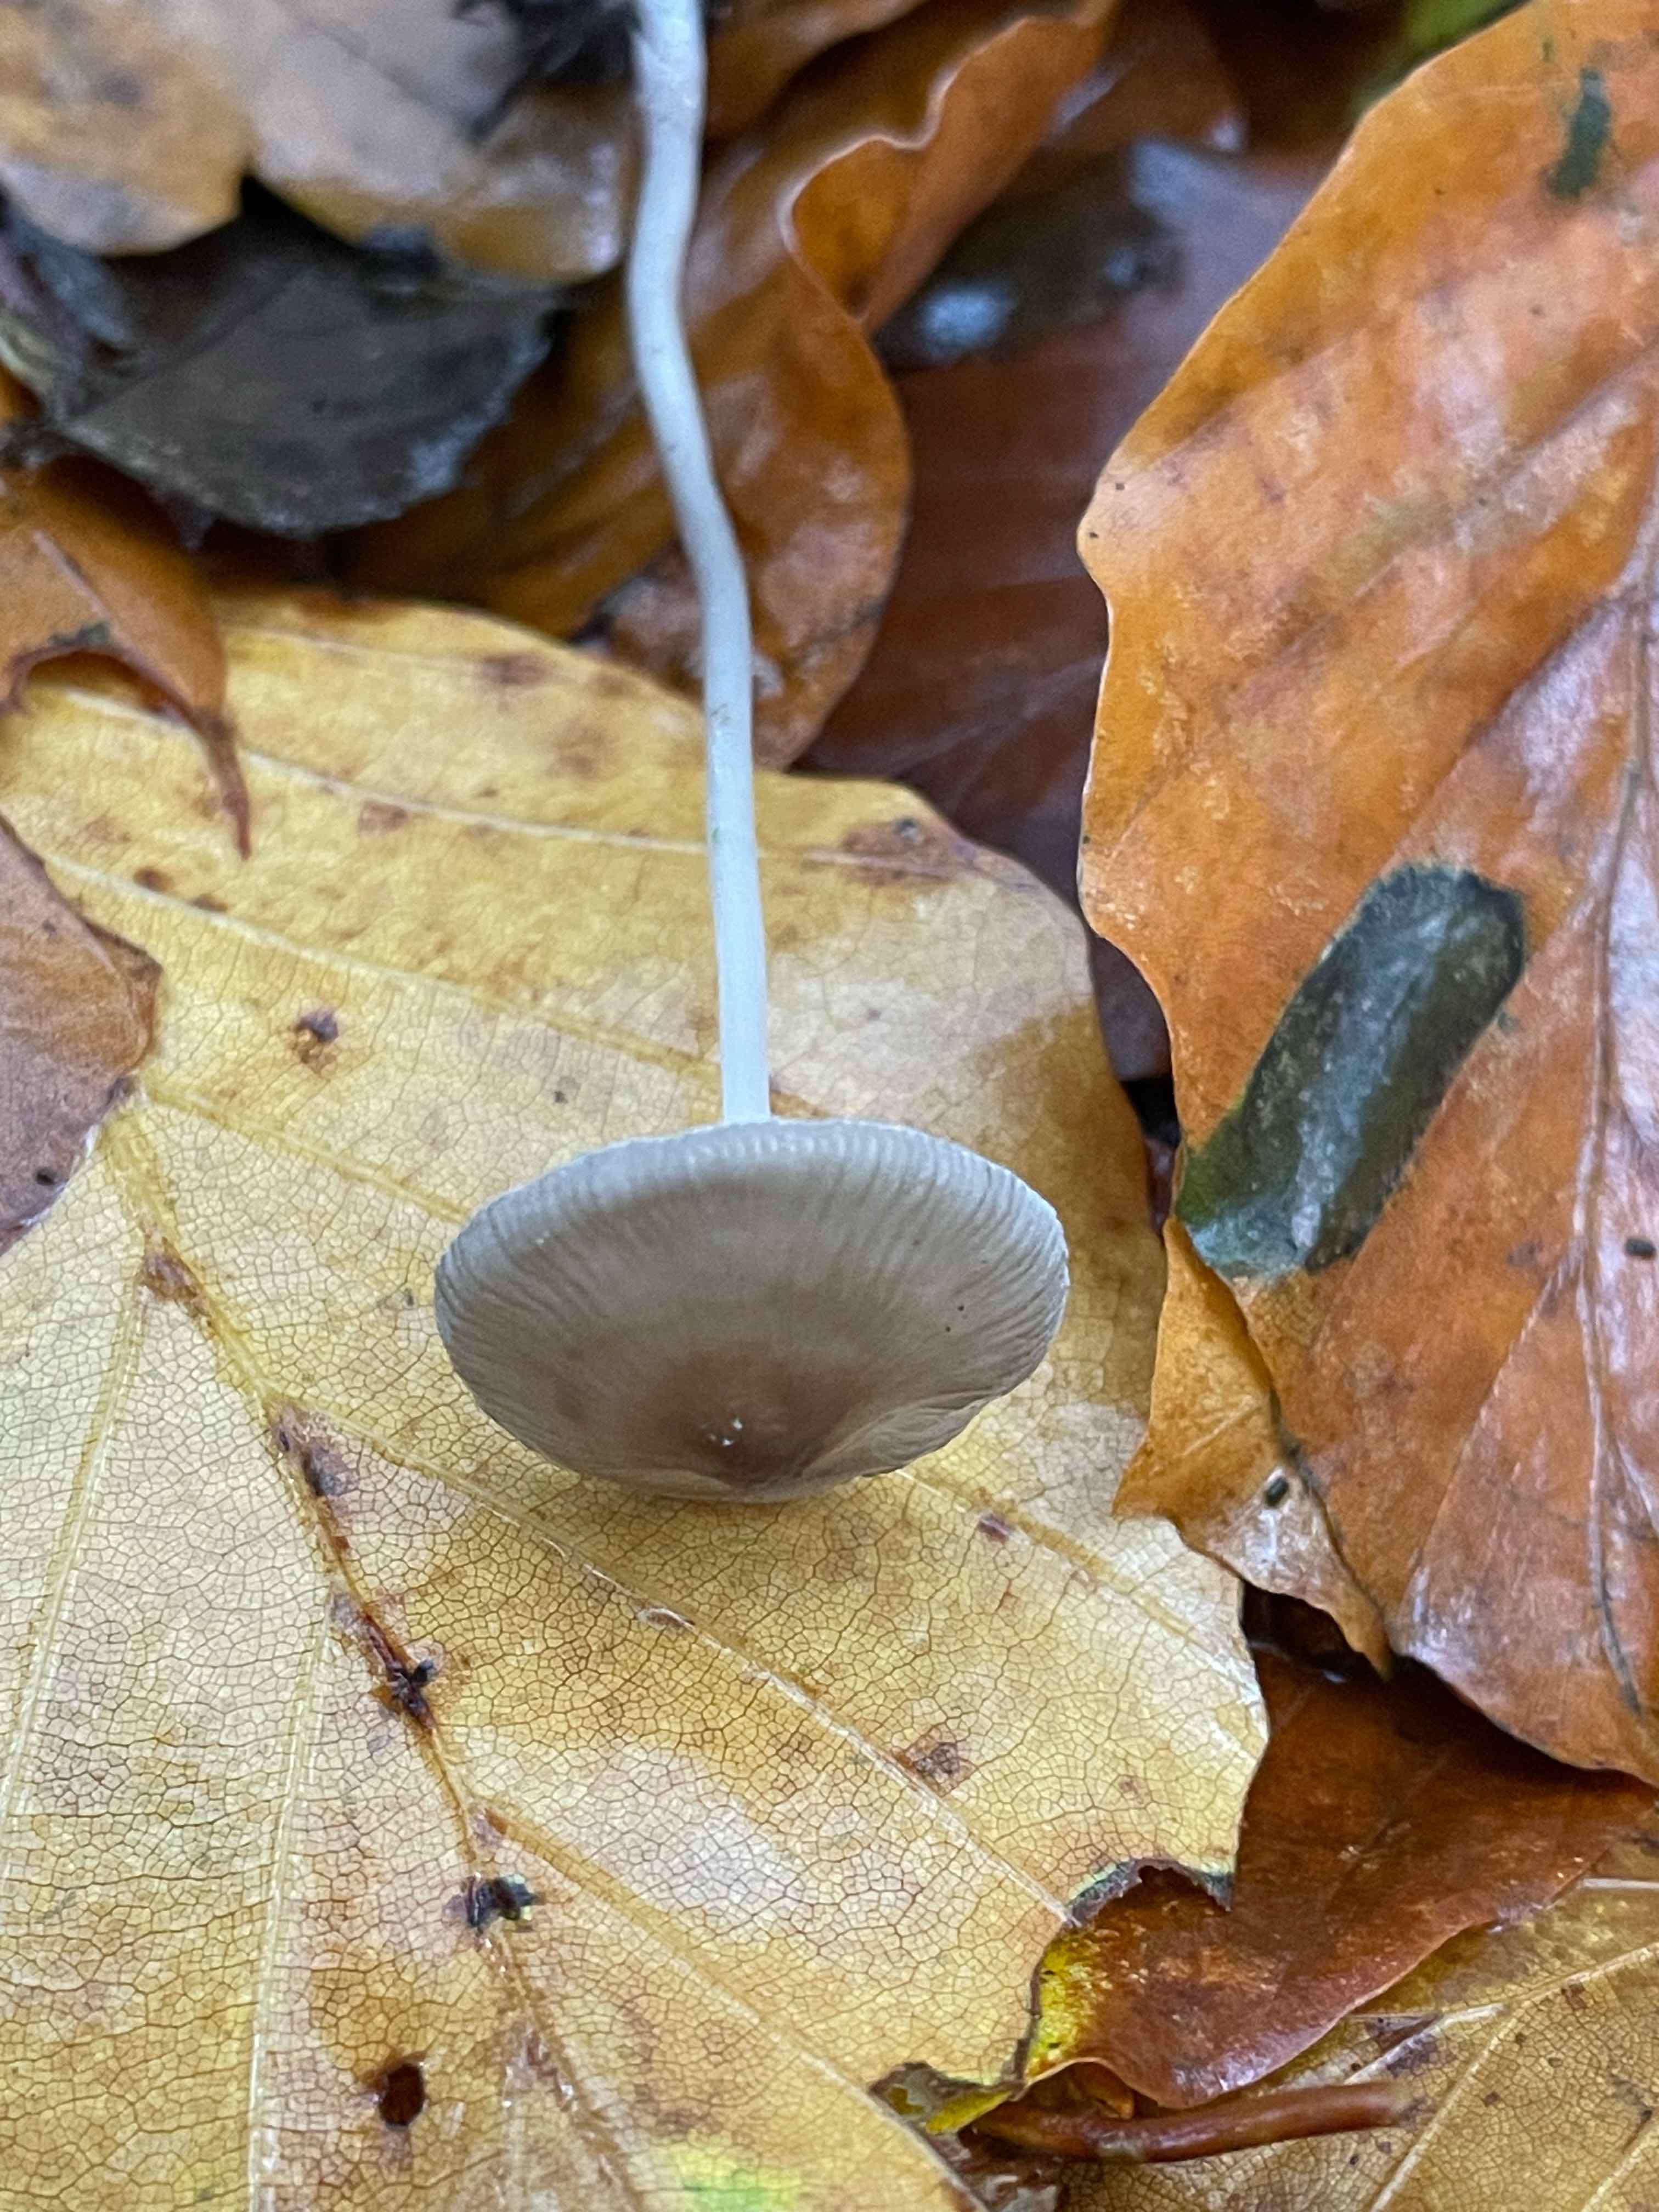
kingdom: Fungi
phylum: Basidiomycota
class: Agaricomycetes
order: Agaricales
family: Mycenaceae
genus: Mycena
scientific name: Mycena vitilis
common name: blankstokket huesvamp
